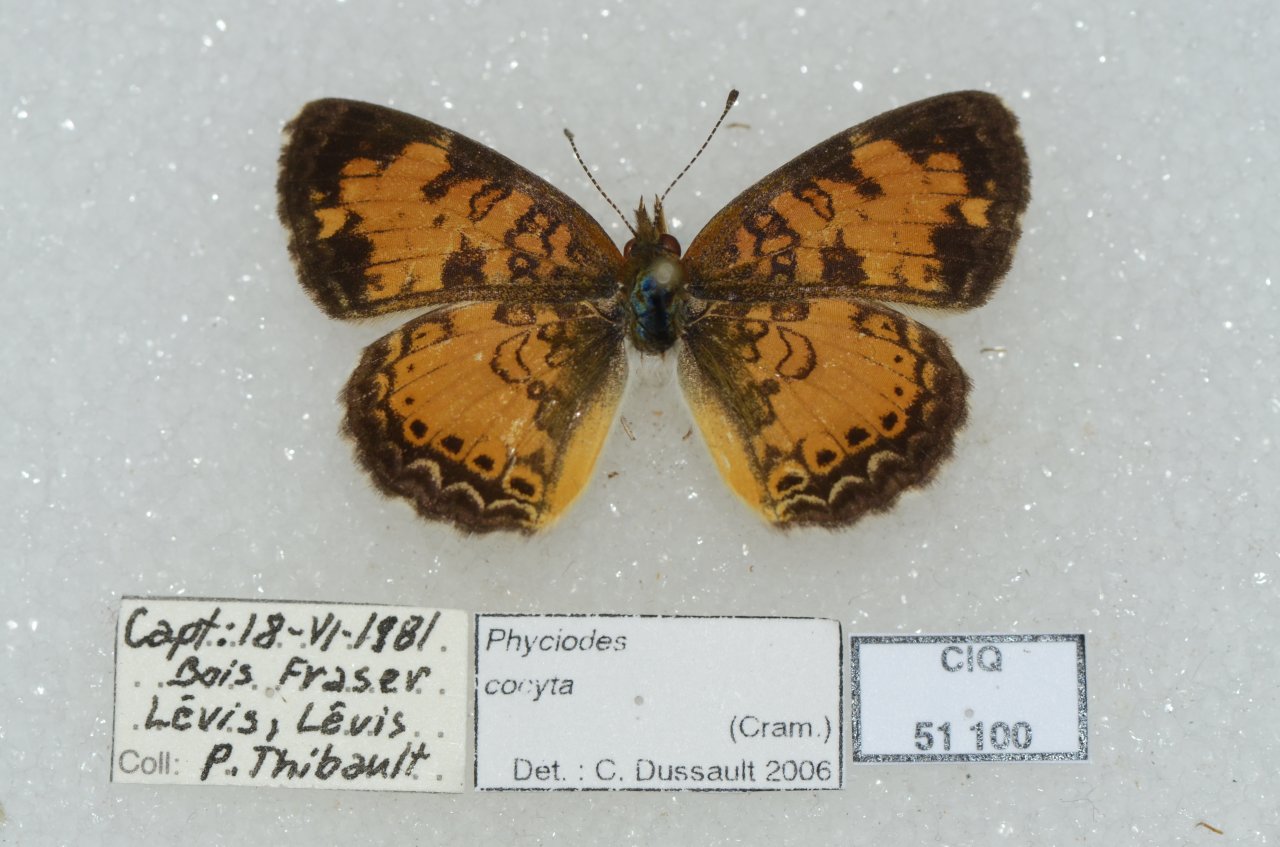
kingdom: Animalia
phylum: Arthropoda
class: Insecta
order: Lepidoptera
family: Nymphalidae
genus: Phyciodes
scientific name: Phyciodes tharos
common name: Northern Crescent
